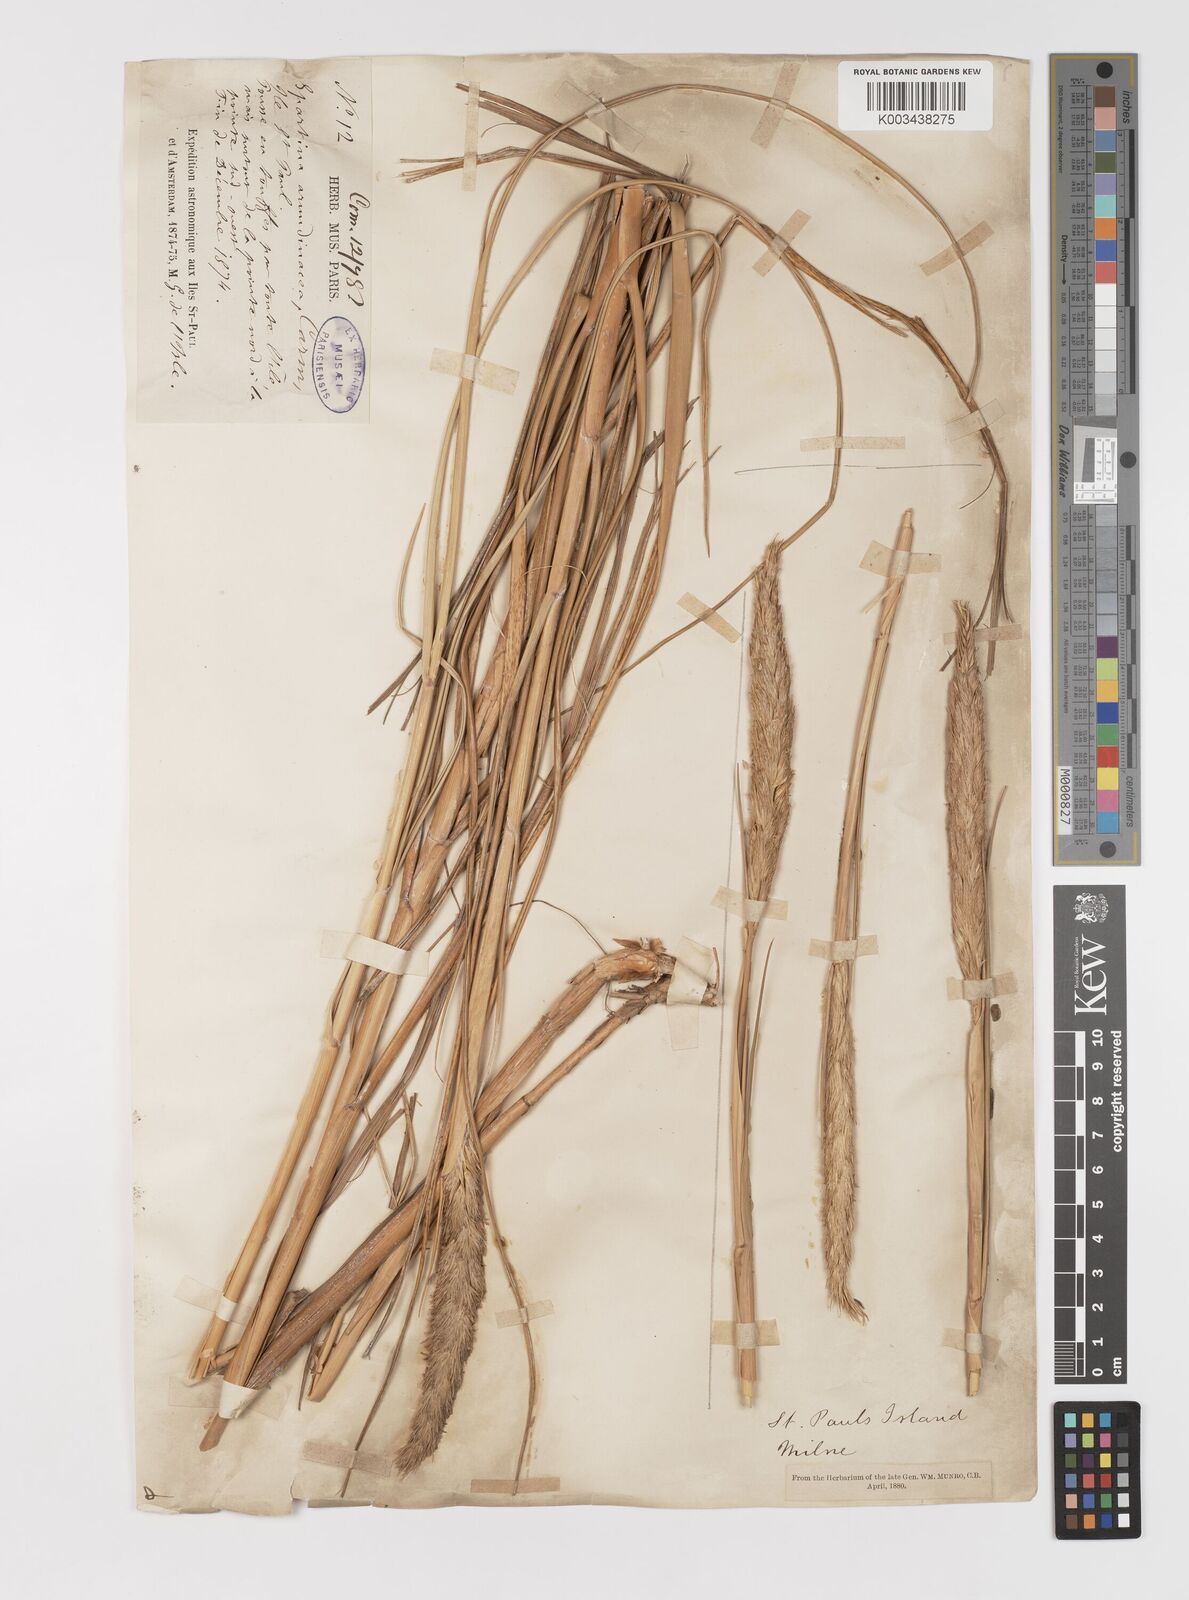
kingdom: Plantae
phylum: Tracheophyta
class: Liliopsida
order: Poales
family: Poaceae
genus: Sporobolus
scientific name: Sporobolus mobberleyanus
